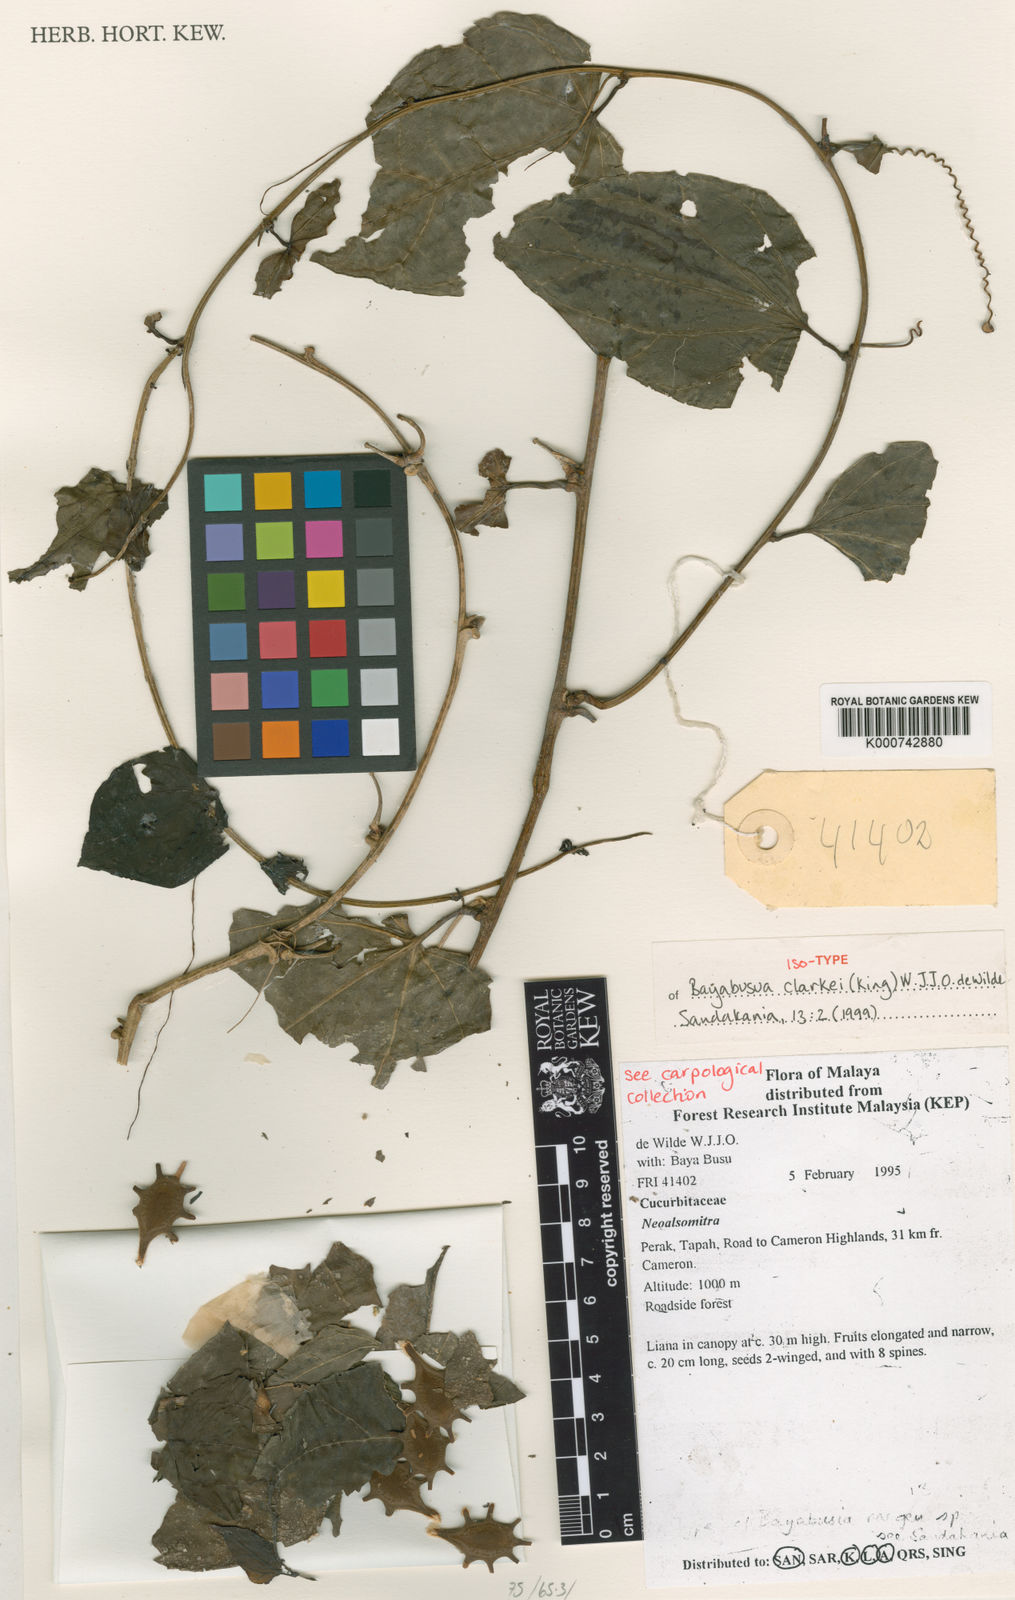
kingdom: Plantae
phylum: Tracheophyta
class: Magnoliopsida
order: Cucurbitales
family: Cucurbitaceae
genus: Bayabusua
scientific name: Bayabusua clarkei
